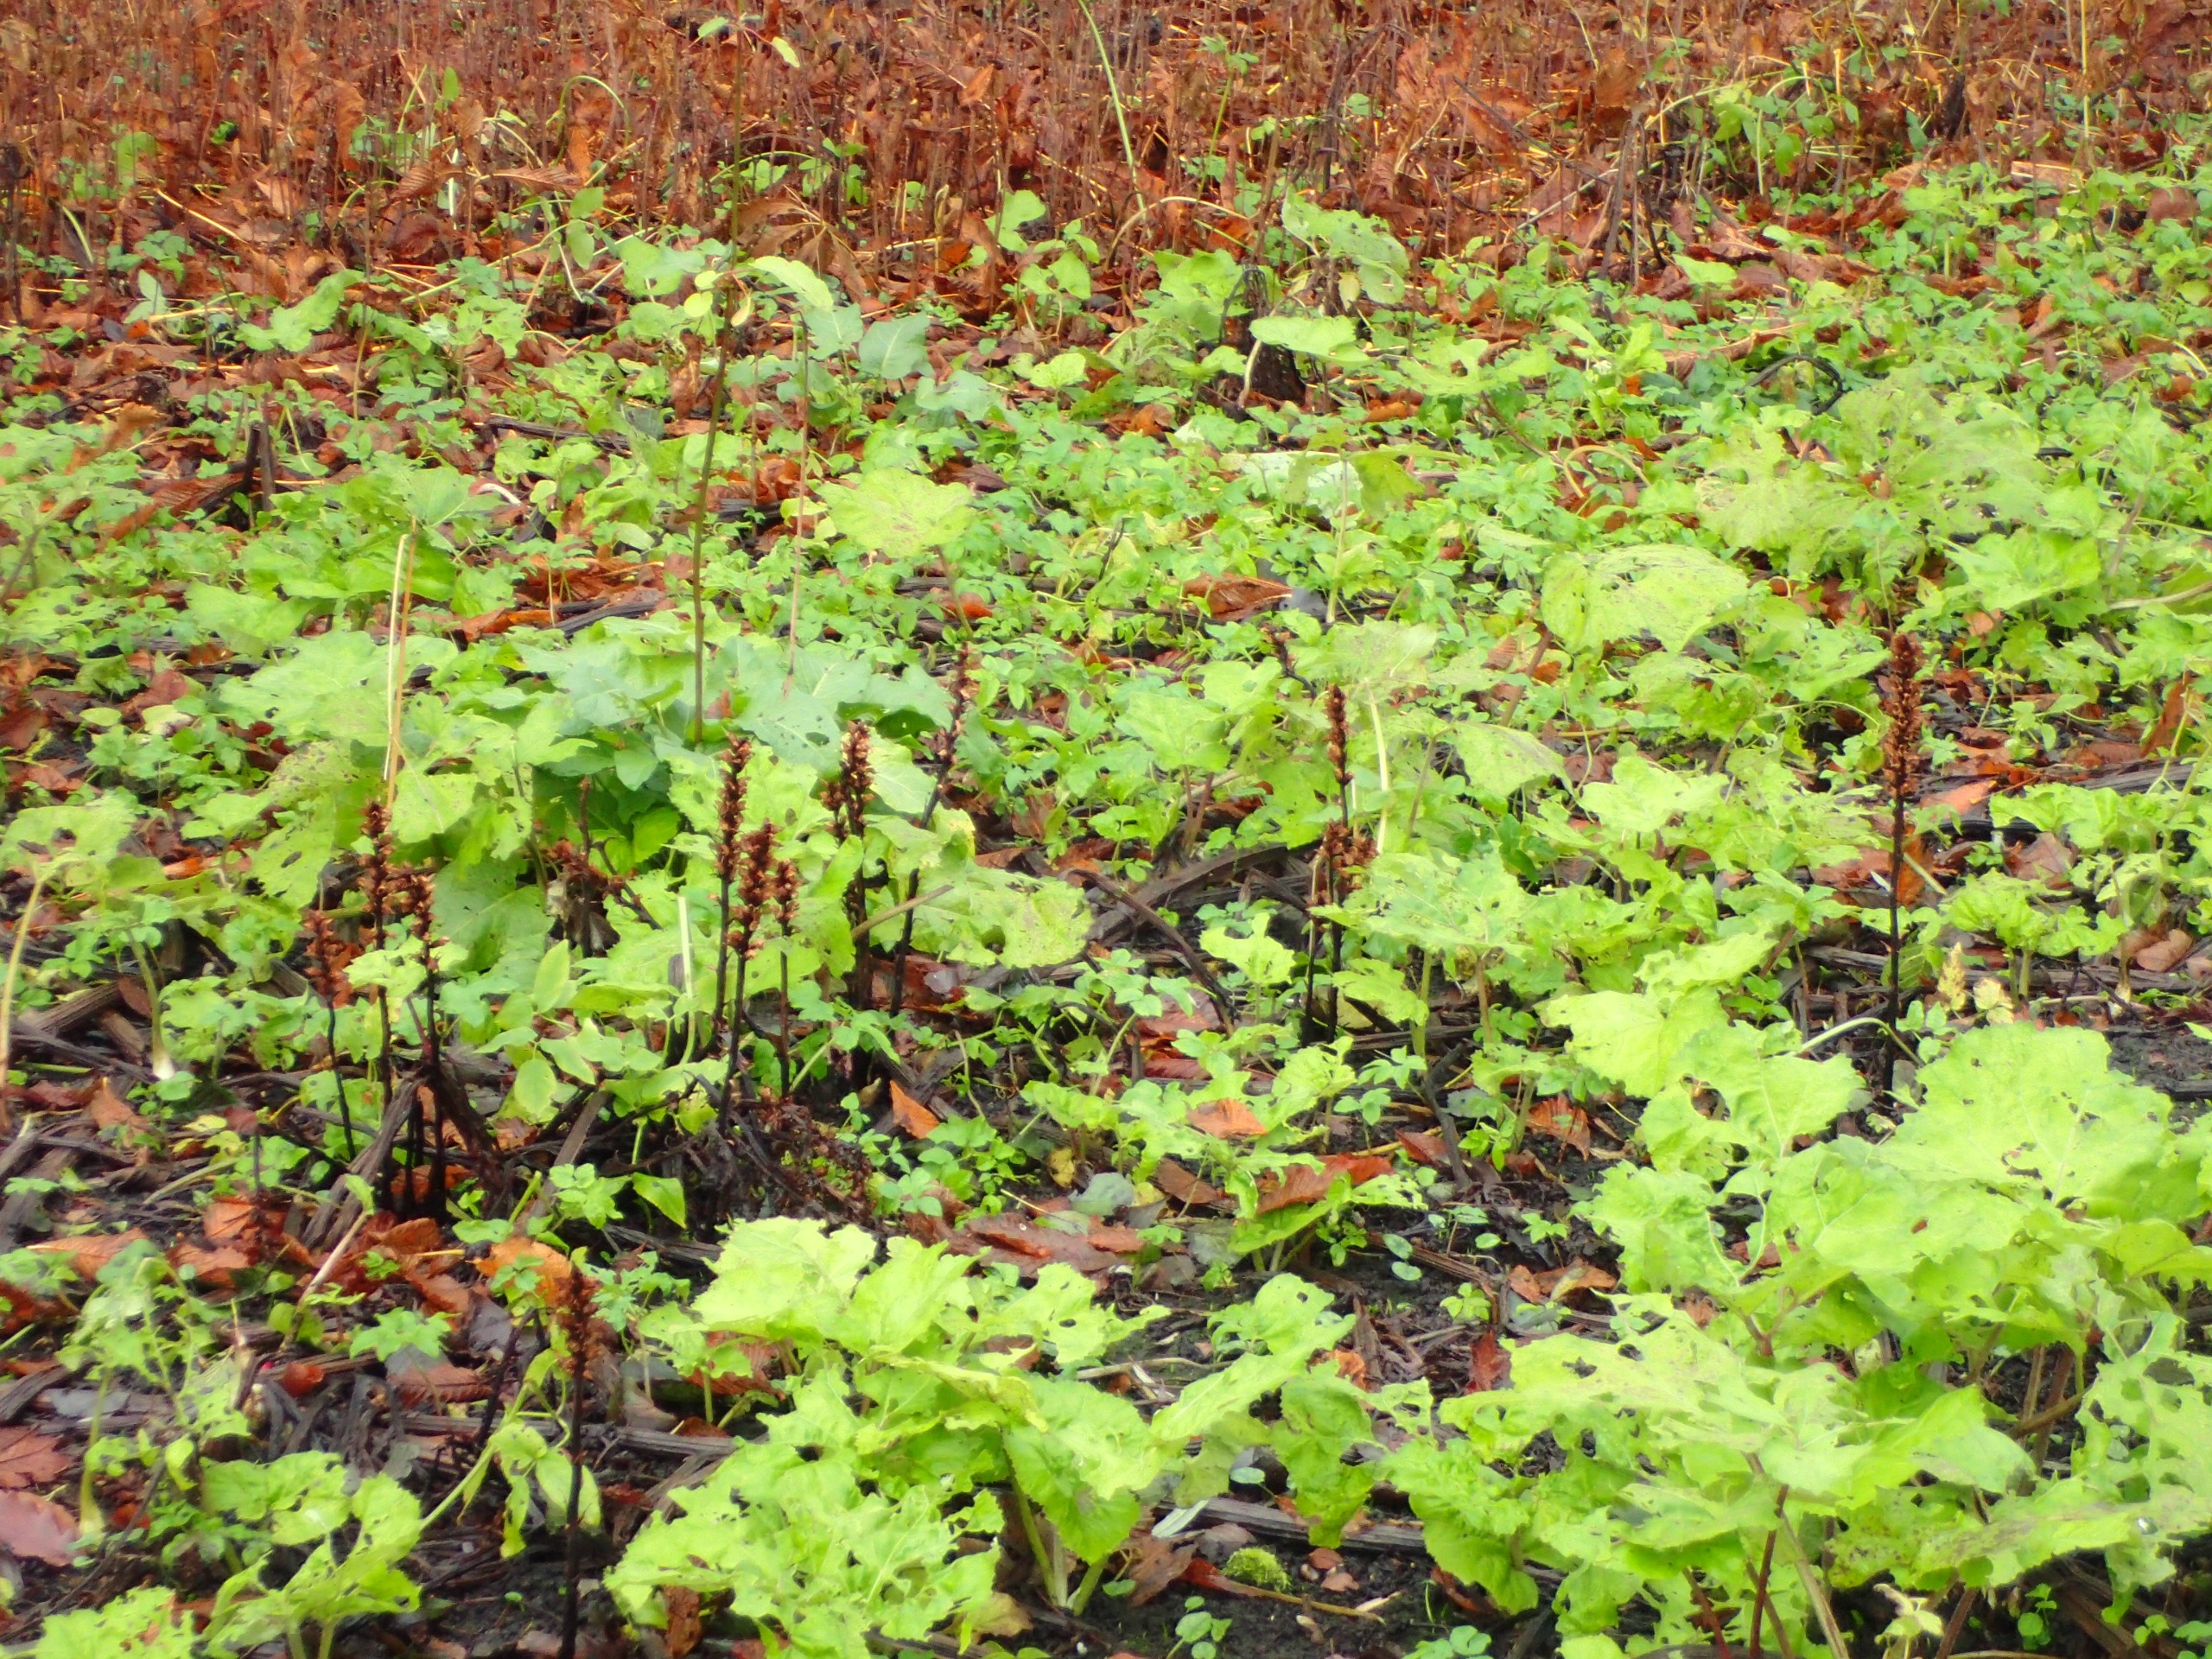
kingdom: Plantae
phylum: Tracheophyta
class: Magnoliopsida
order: Lamiales
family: Orobanchaceae
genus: Orobanche
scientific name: Orobanche flava
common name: Gul gyvelkvæler
